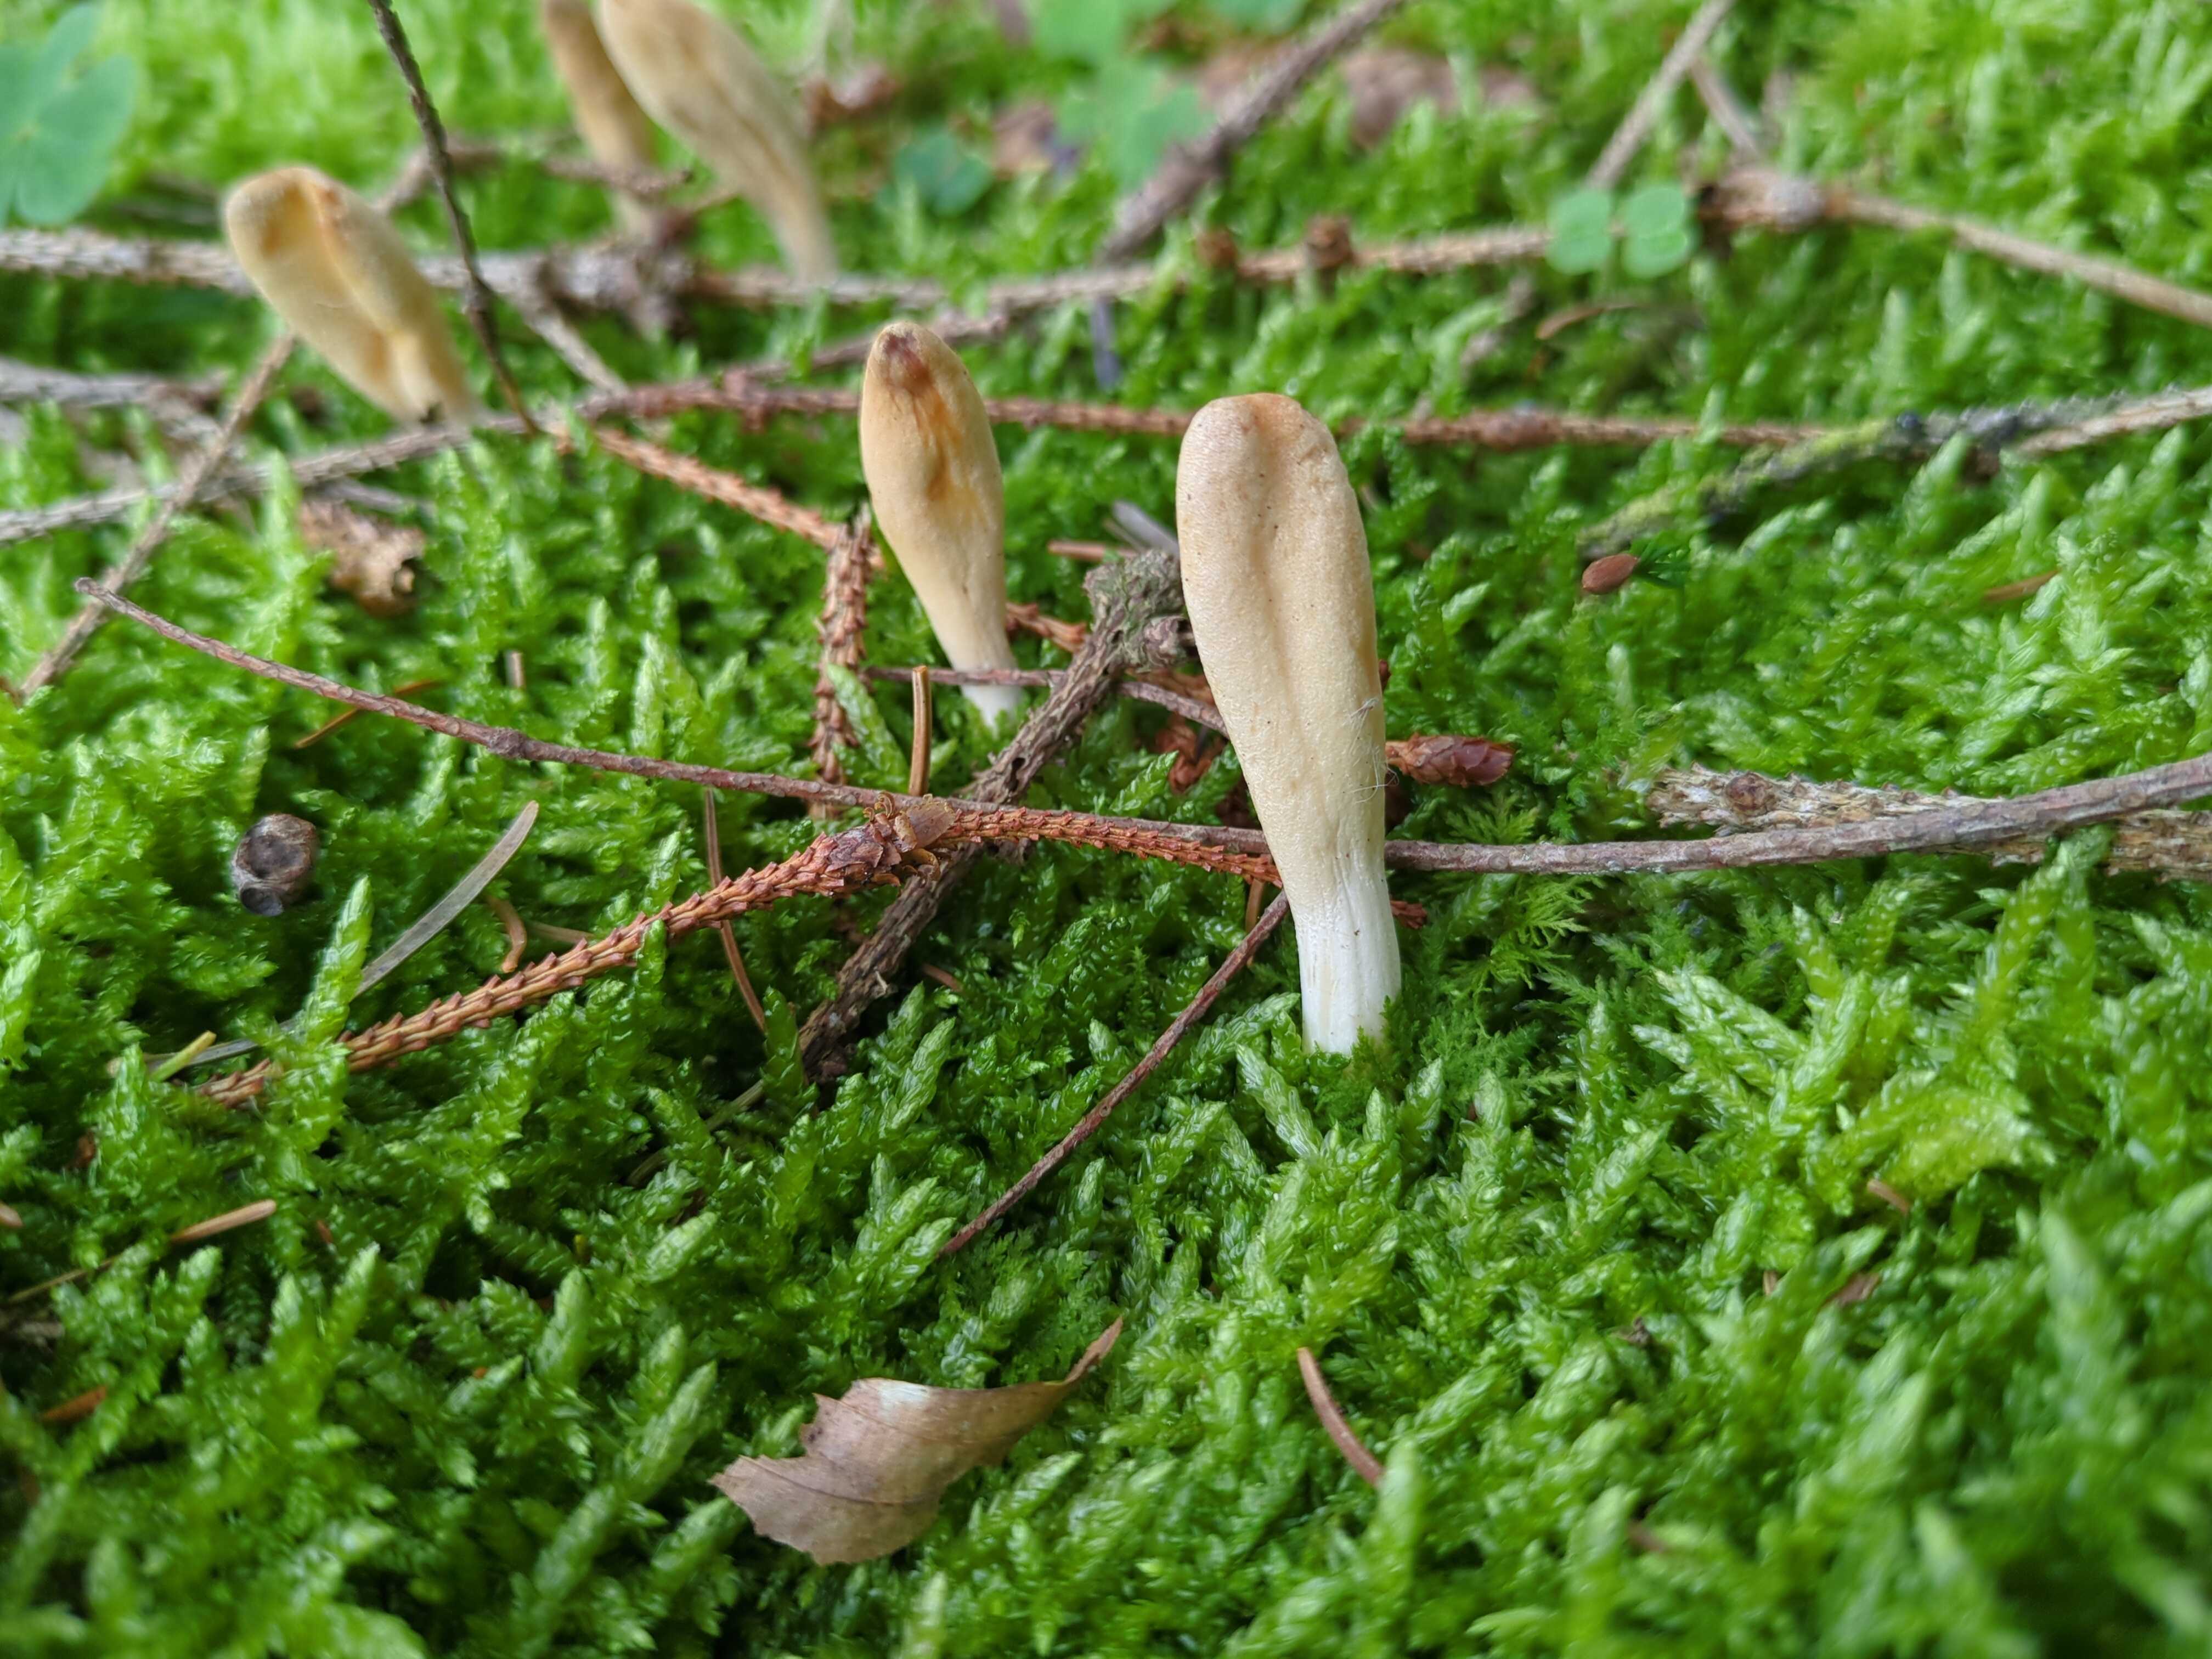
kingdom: Fungi
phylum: Ascomycota
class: Sordariomycetes
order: Hypocreales
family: Hypocreaceae
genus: Trichoderma
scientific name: Trichoderma leucopus
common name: lysstokket kødkerne
